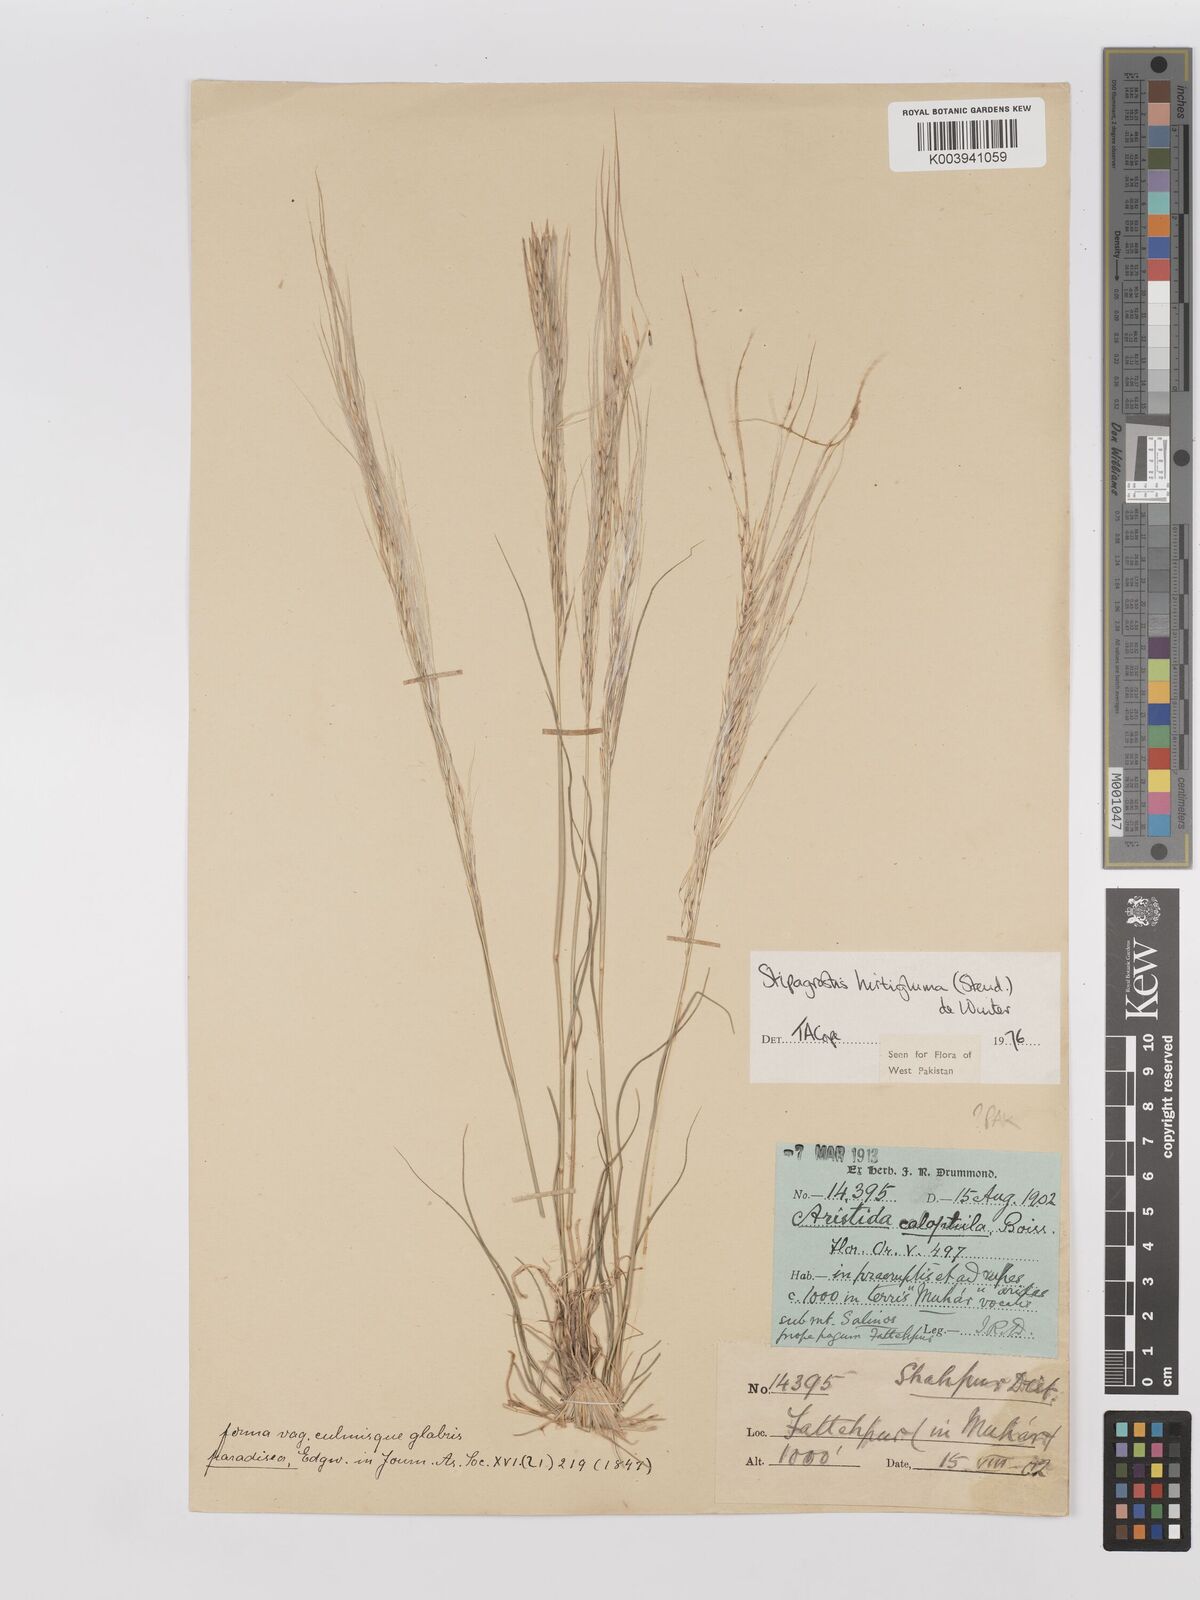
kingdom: Plantae
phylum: Tracheophyta
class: Liliopsida
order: Poales
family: Poaceae
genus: Stipagrostis
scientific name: Stipagrostis hirtigluma
